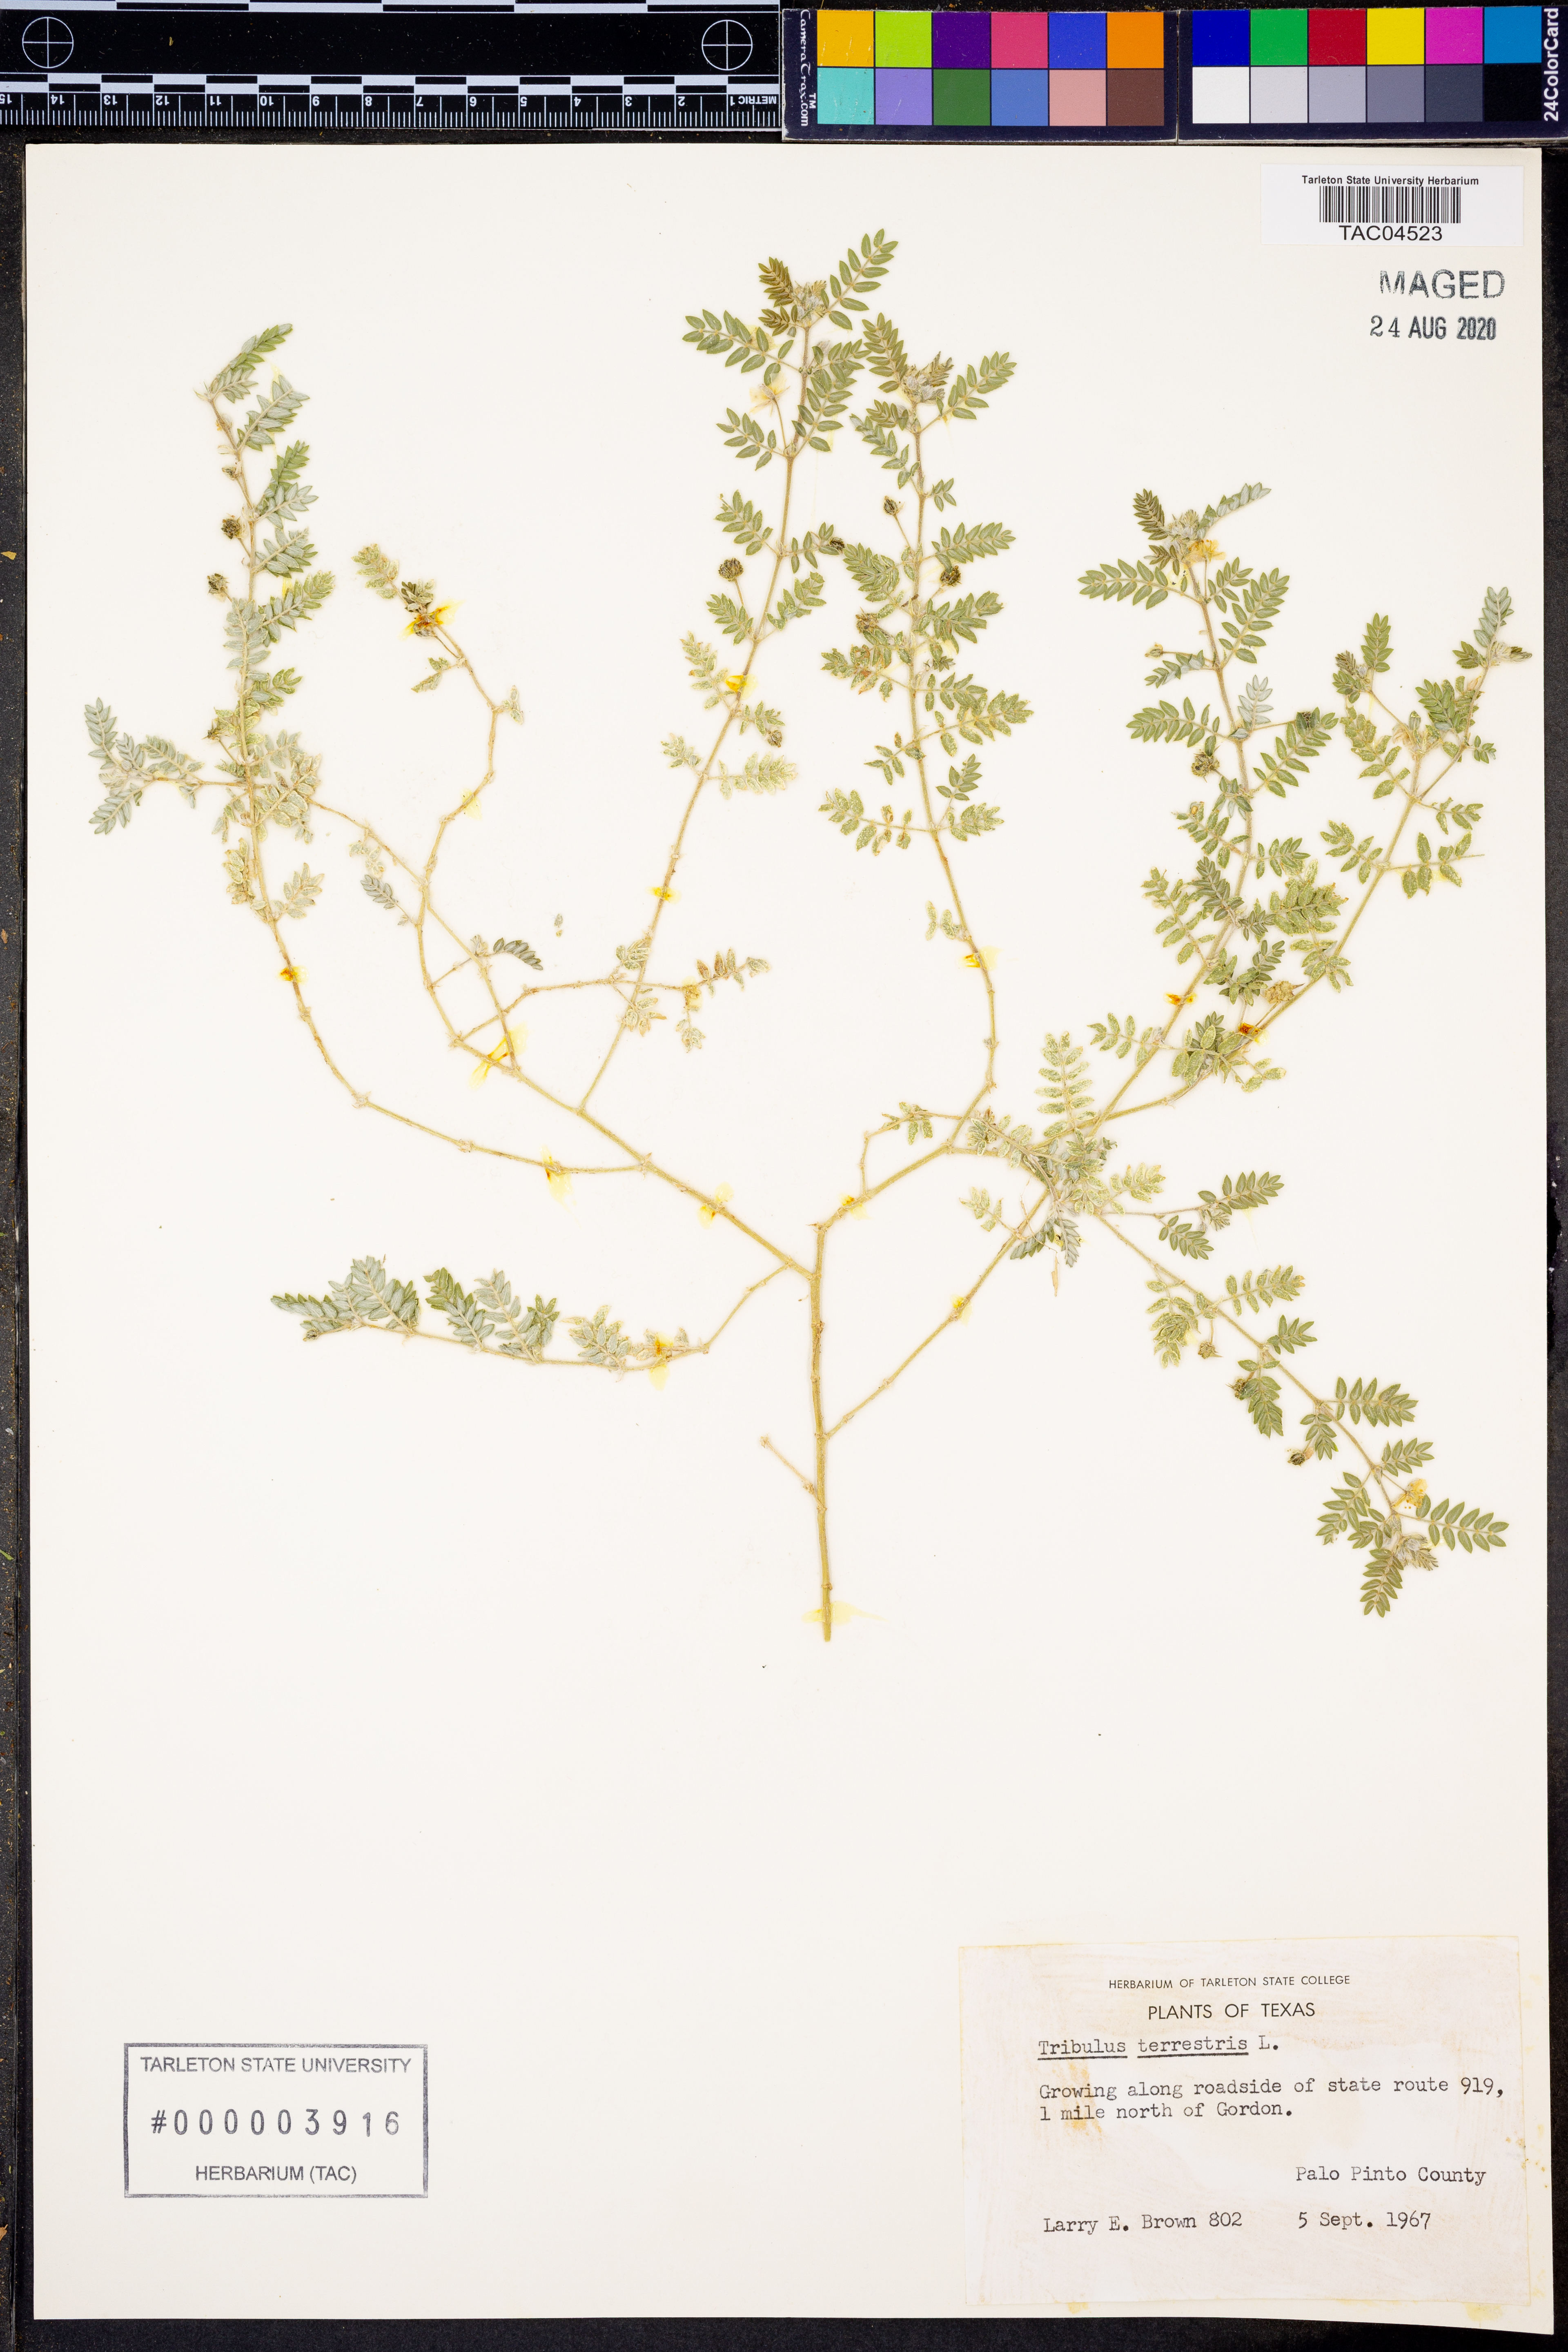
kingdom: Plantae
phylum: Tracheophyta
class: Magnoliopsida
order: Zygophyllales
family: Zygophyllaceae
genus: Tribulus
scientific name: Tribulus terrestris
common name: Puncturevine
